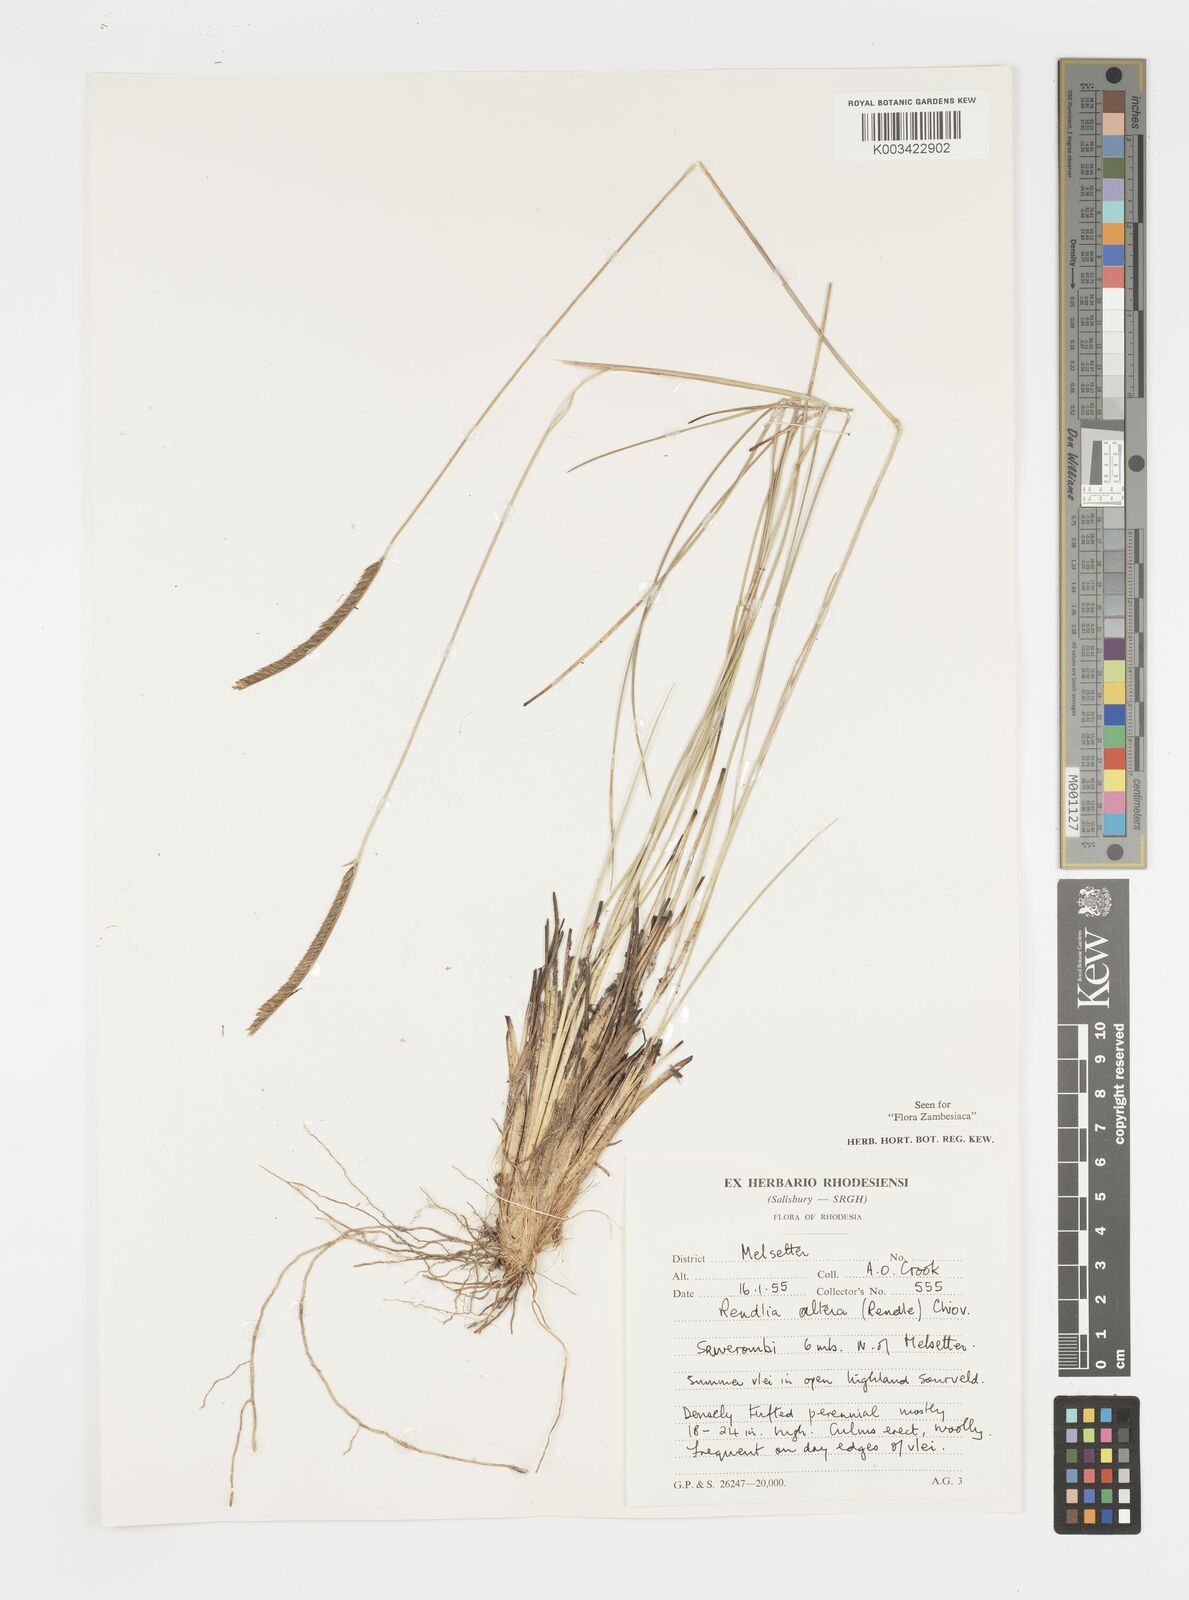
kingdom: Plantae
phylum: Tracheophyta
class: Liliopsida
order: Poales
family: Poaceae
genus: Microchloa
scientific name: Microchloa altera
